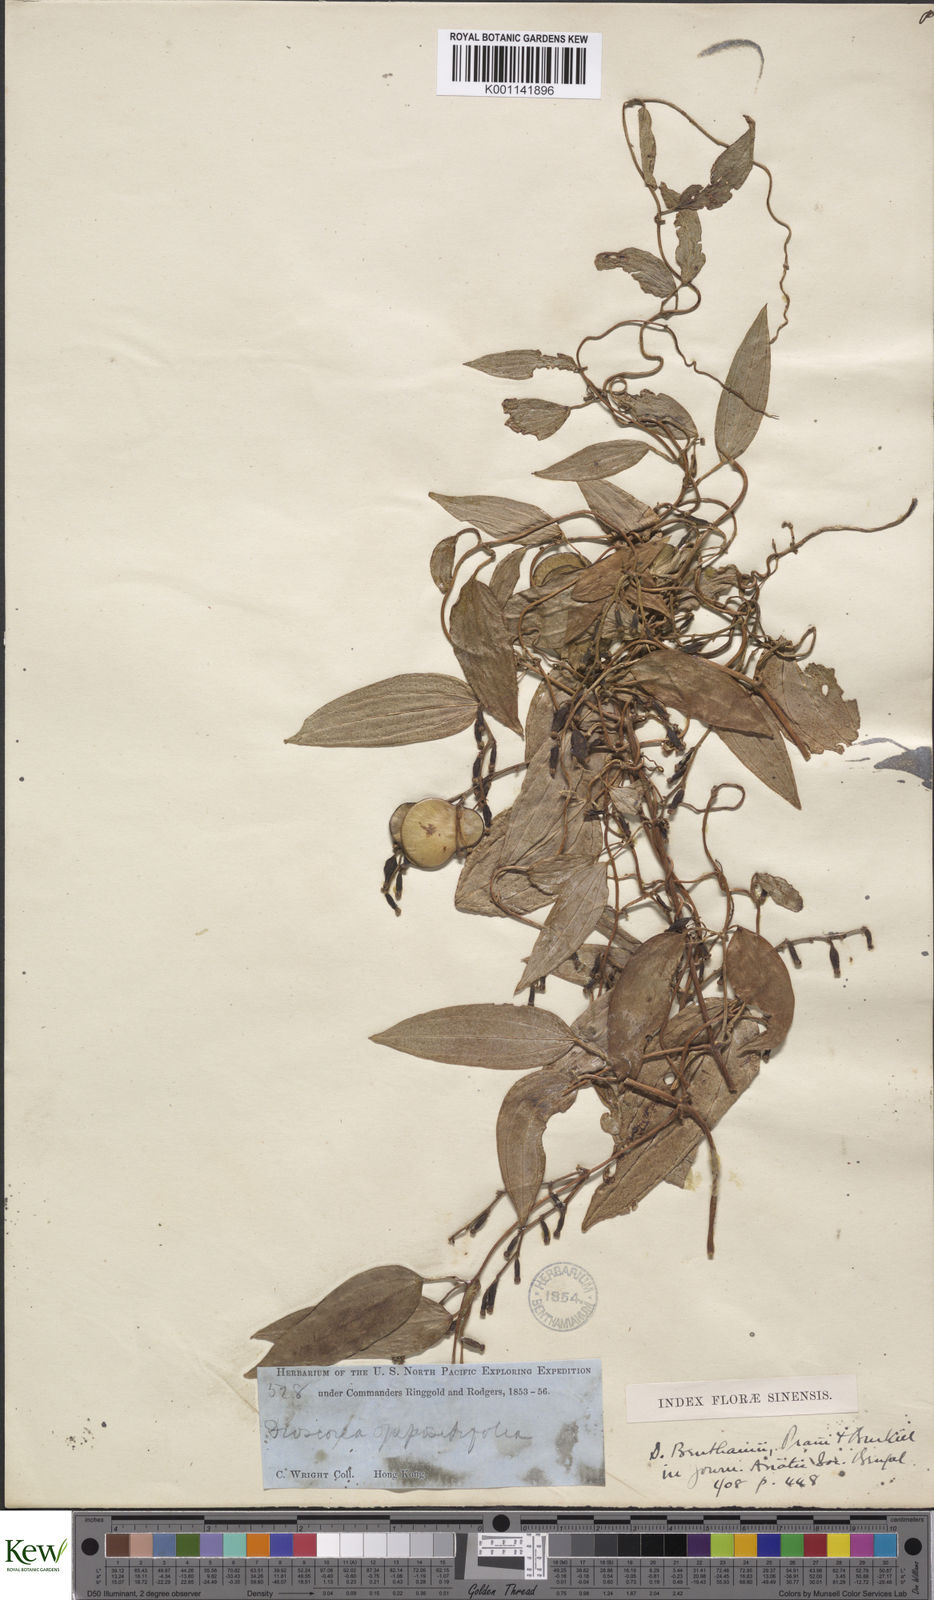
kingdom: Plantae
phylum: Tracheophyta
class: Liliopsida
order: Dioscoreales
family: Dioscoreaceae
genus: Dioscorea
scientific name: Dioscorea benthamii
